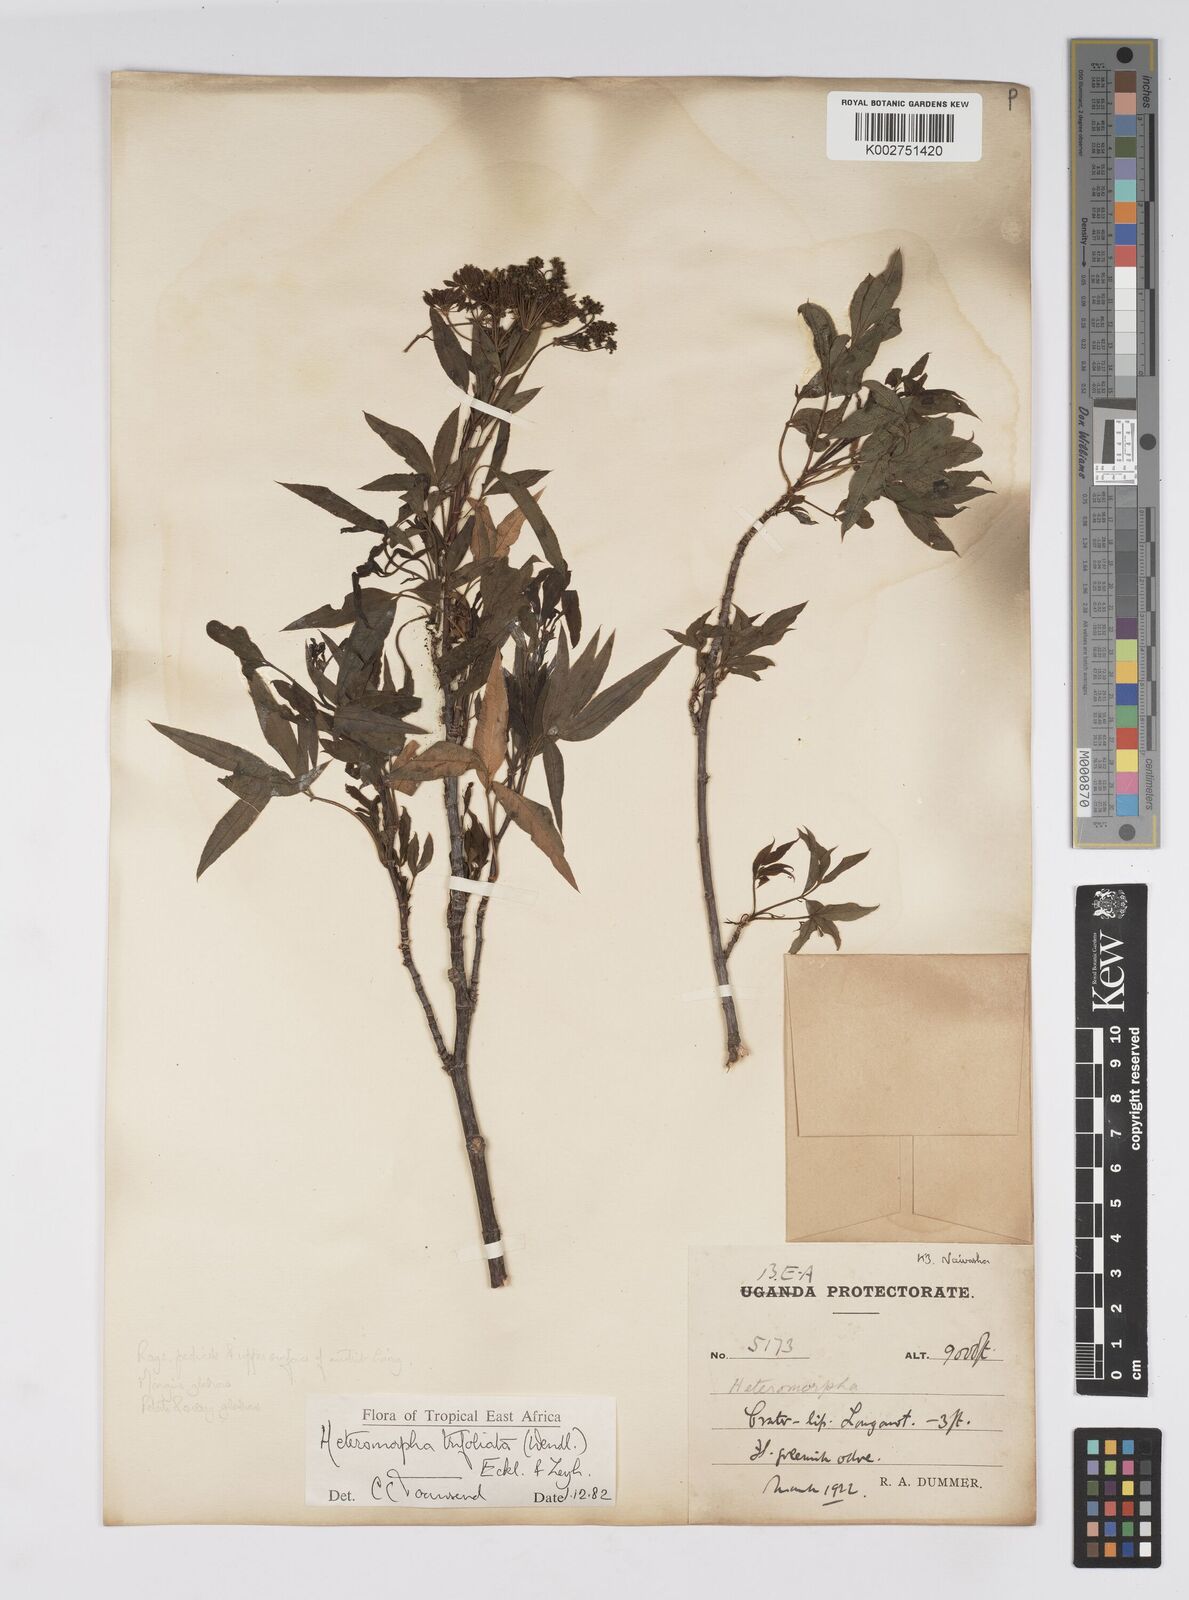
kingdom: Plantae
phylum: Tracheophyta
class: Magnoliopsida
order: Apiales
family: Apiaceae
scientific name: Apiaceae
